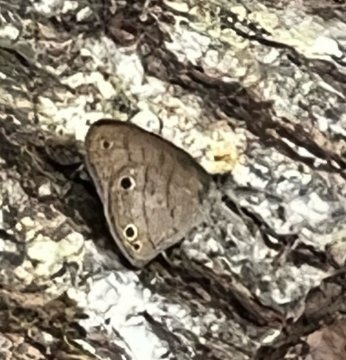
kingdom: Animalia
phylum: Arthropoda
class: Insecta
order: Lepidoptera
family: Nymphalidae
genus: Hermeuptychia
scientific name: Hermeuptychia hermes
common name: Carolina Satyr
